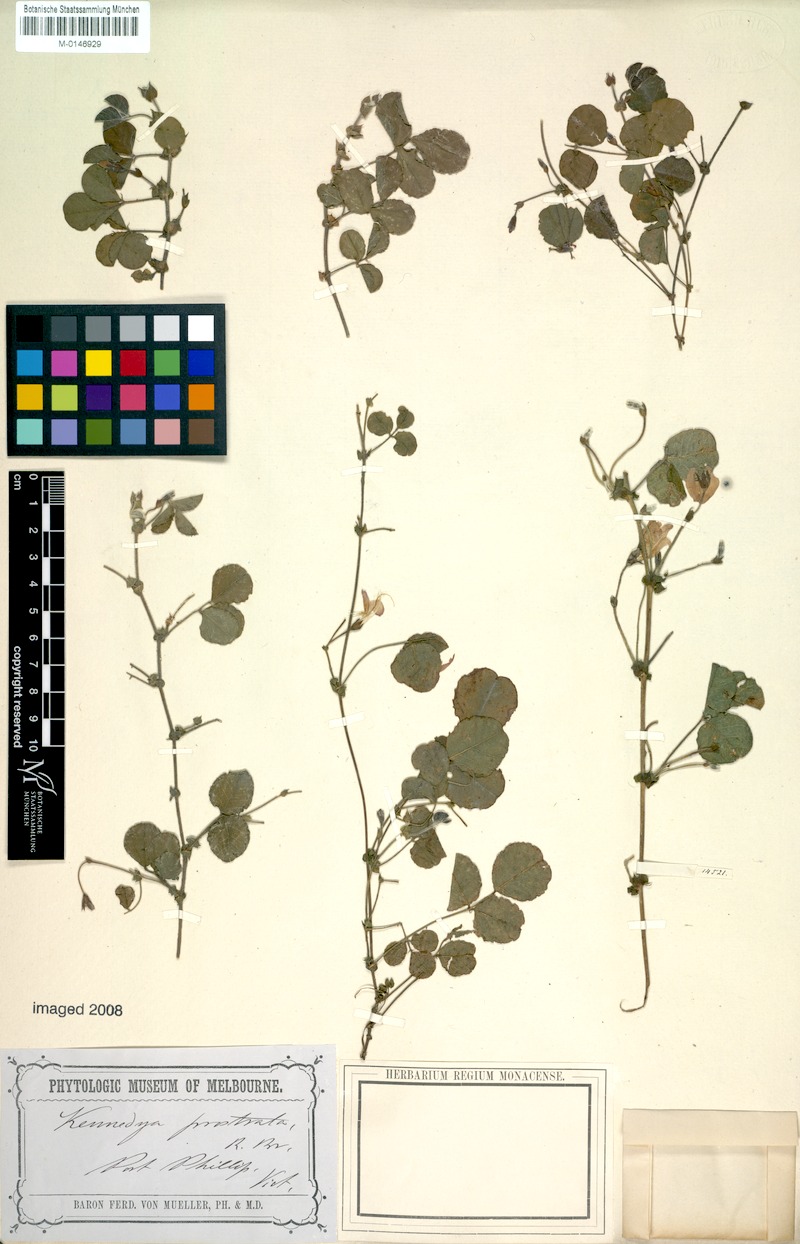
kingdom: Plantae
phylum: Tracheophyta
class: Magnoliopsida
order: Fabales
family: Fabaceae
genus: Kennedia
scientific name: Kennedia prostrata
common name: Running-postman
